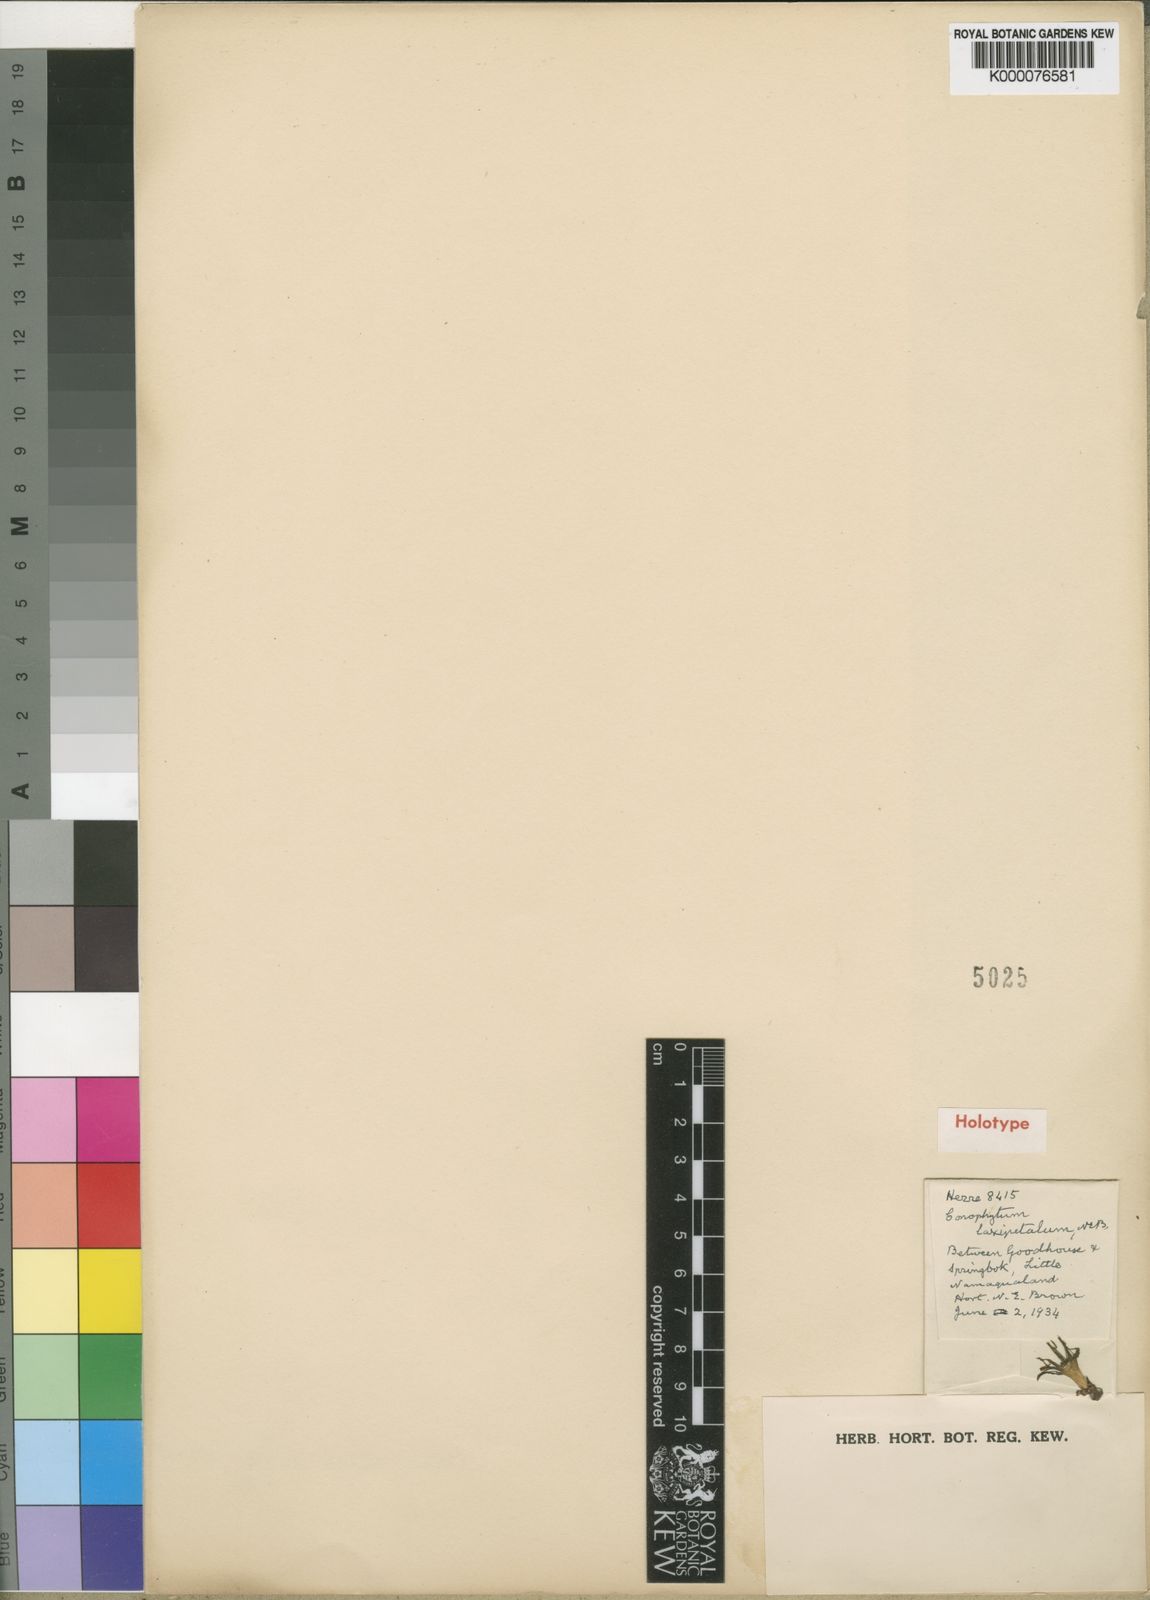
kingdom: Plantae
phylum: Tracheophyta
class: Magnoliopsida
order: Caryophyllales
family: Aizoaceae
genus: Conophytum
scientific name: Conophytum bilobum
